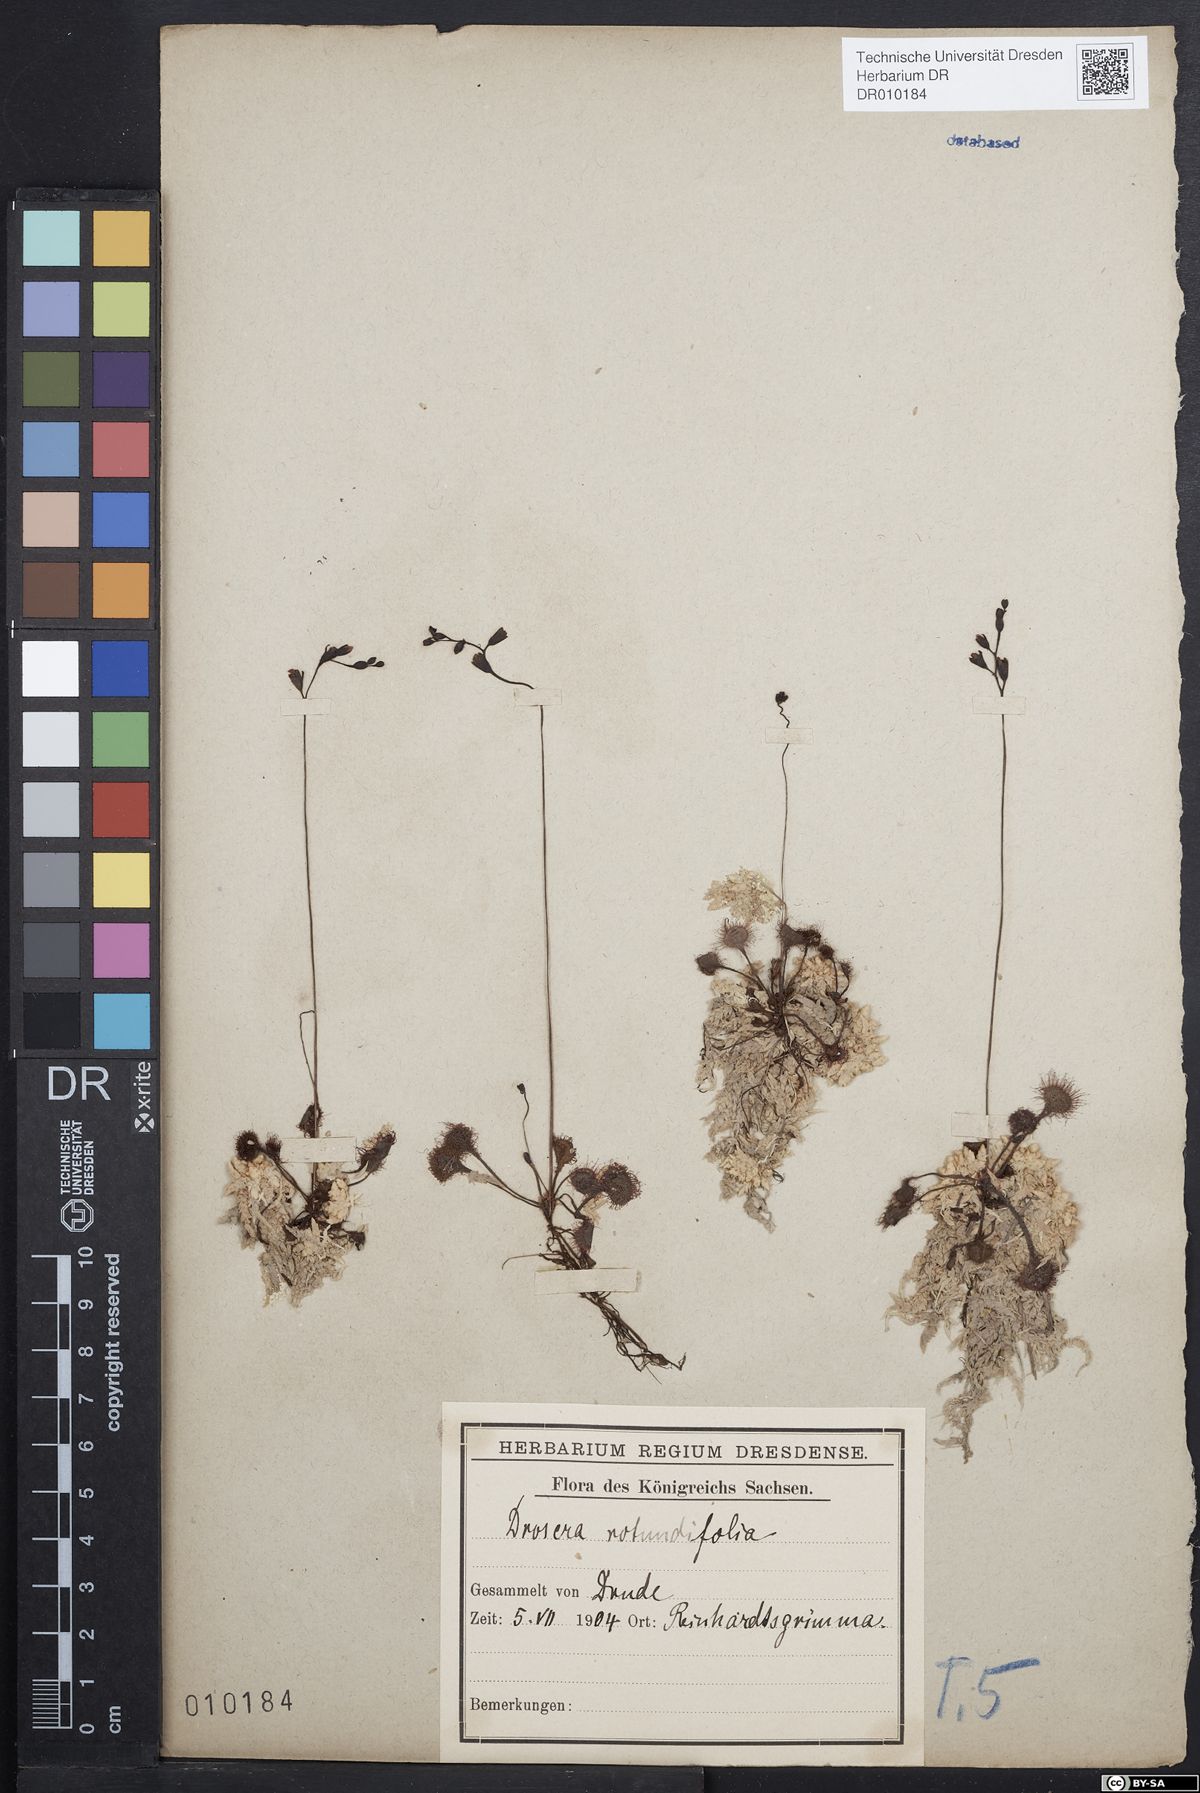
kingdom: Plantae
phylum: Tracheophyta
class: Magnoliopsida
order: Caryophyllales
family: Droseraceae
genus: Drosera
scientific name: Drosera rotundifolia
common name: Round-leaved sundew
